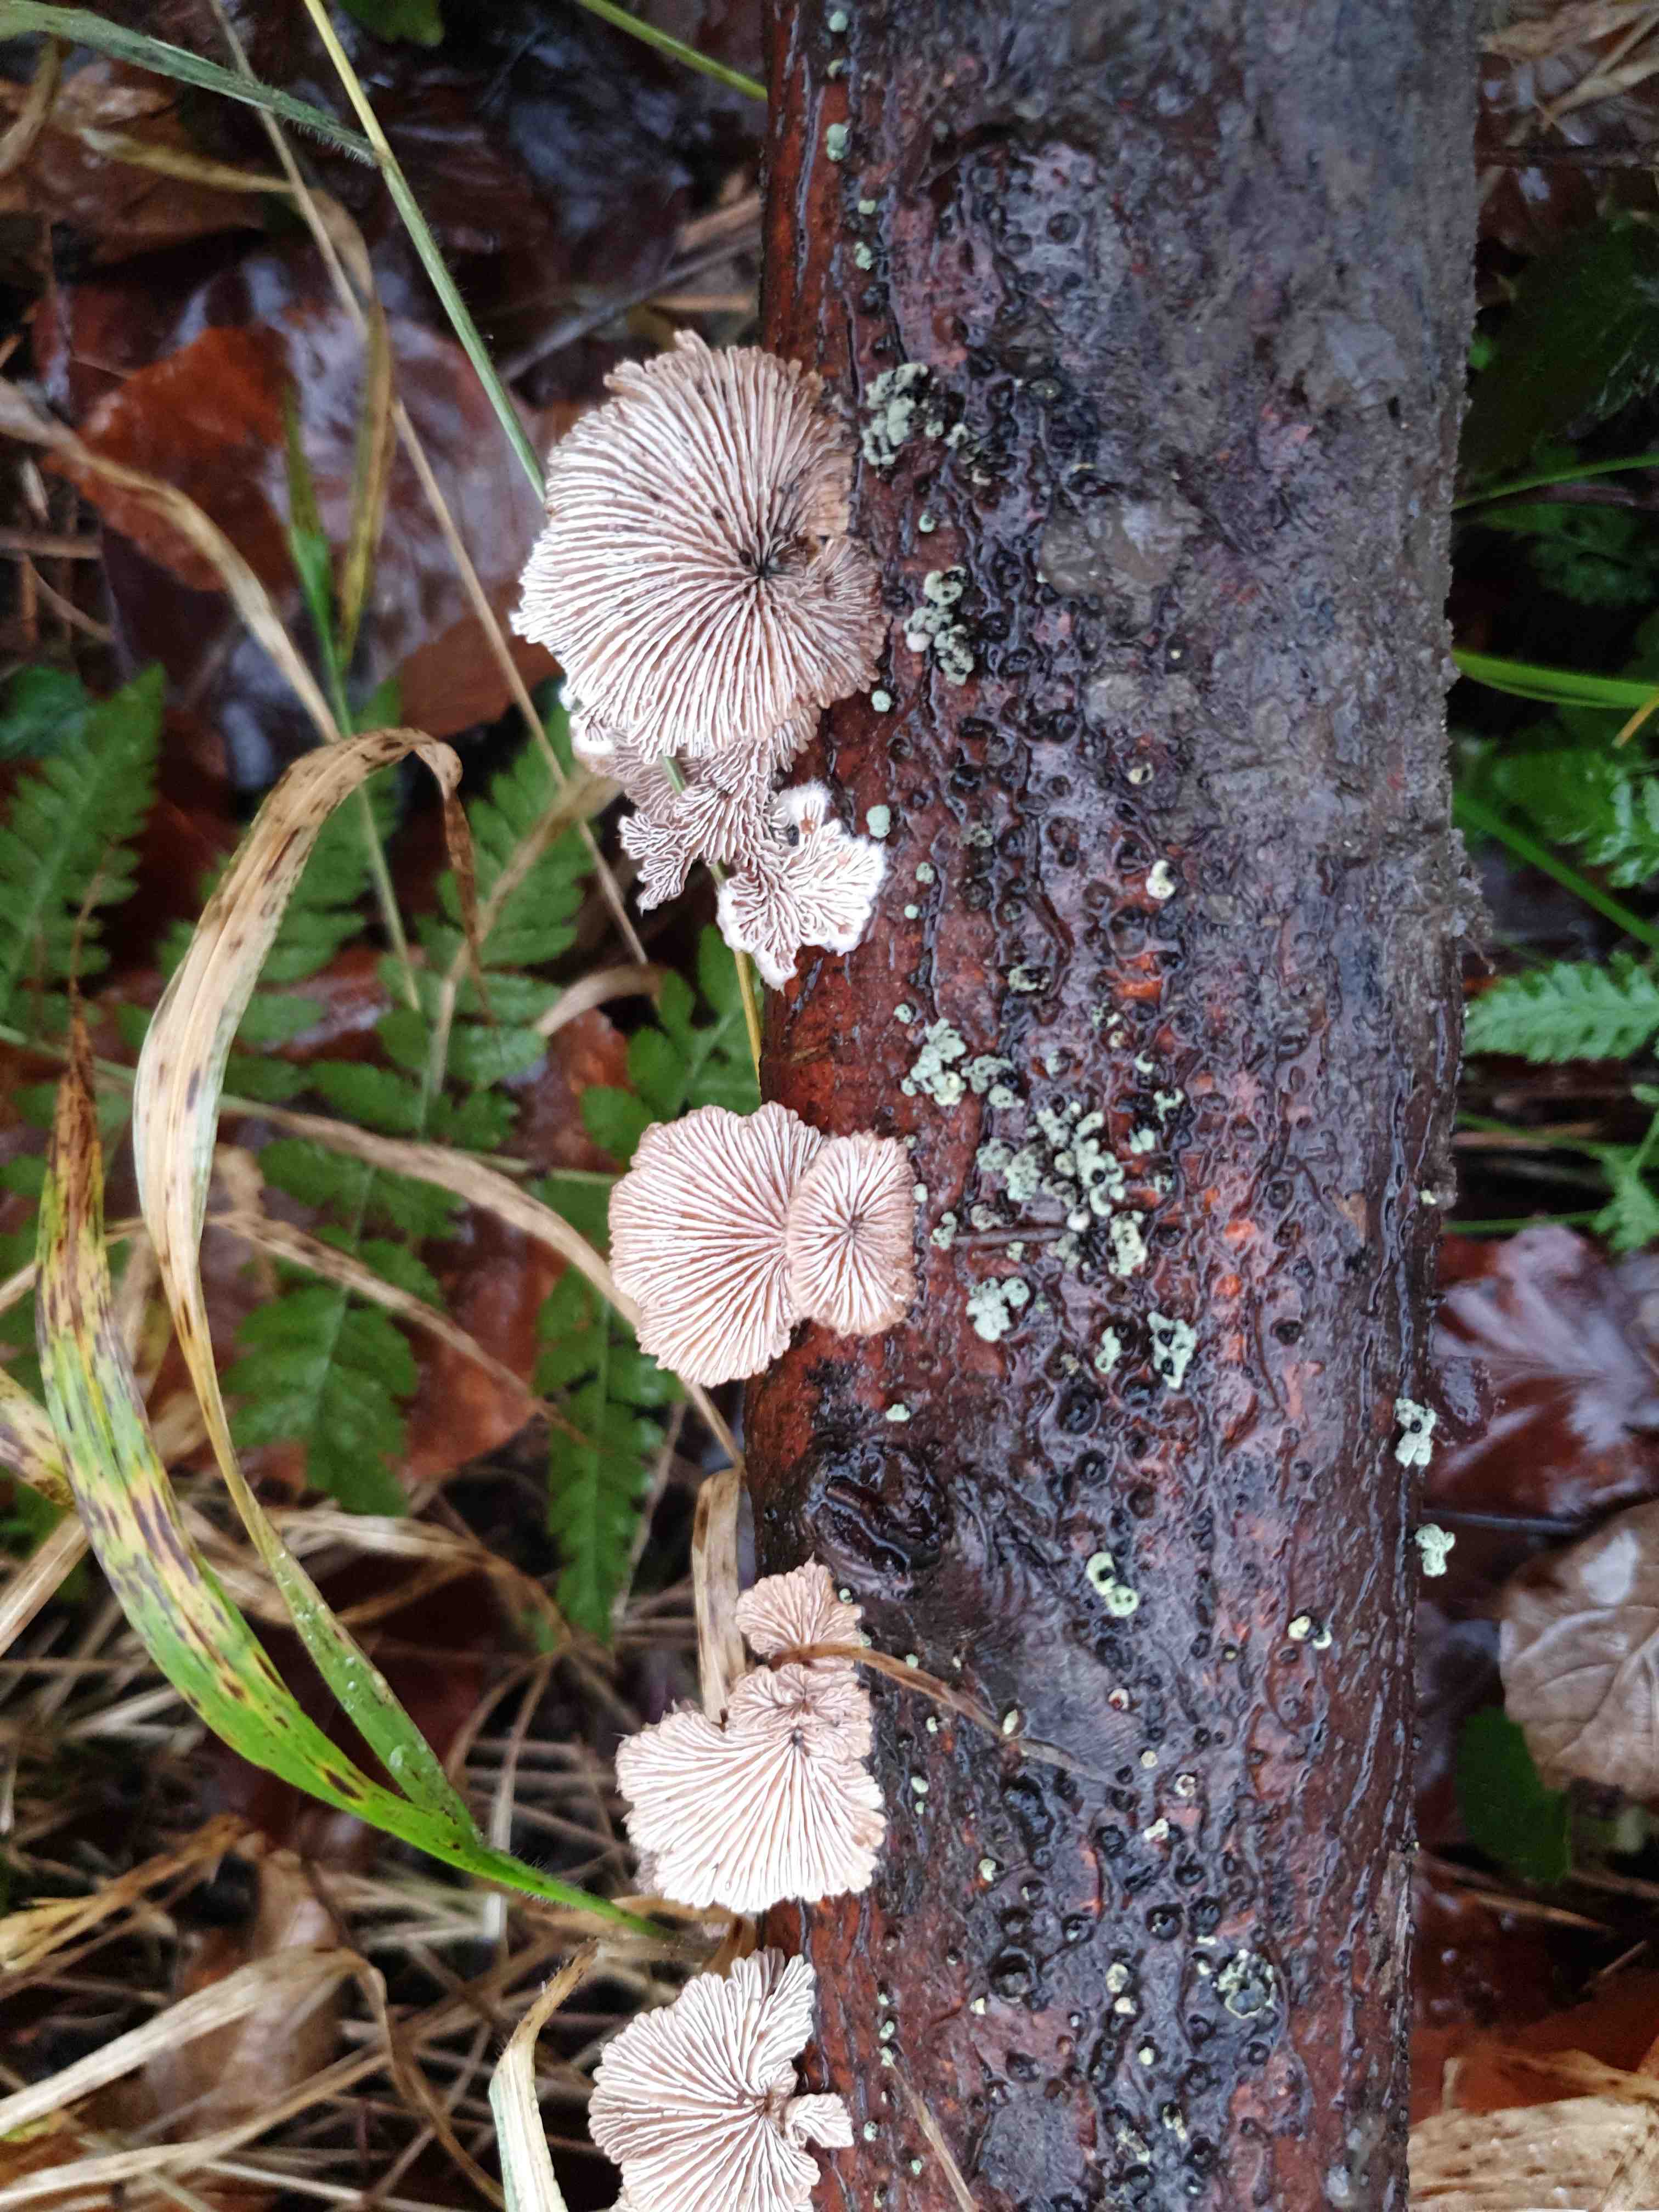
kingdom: Fungi
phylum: Basidiomycota
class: Agaricomycetes
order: Agaricales
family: Schizophyllaceae
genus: Schizophyllum
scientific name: Schizophyllum commune
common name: kløvblad
